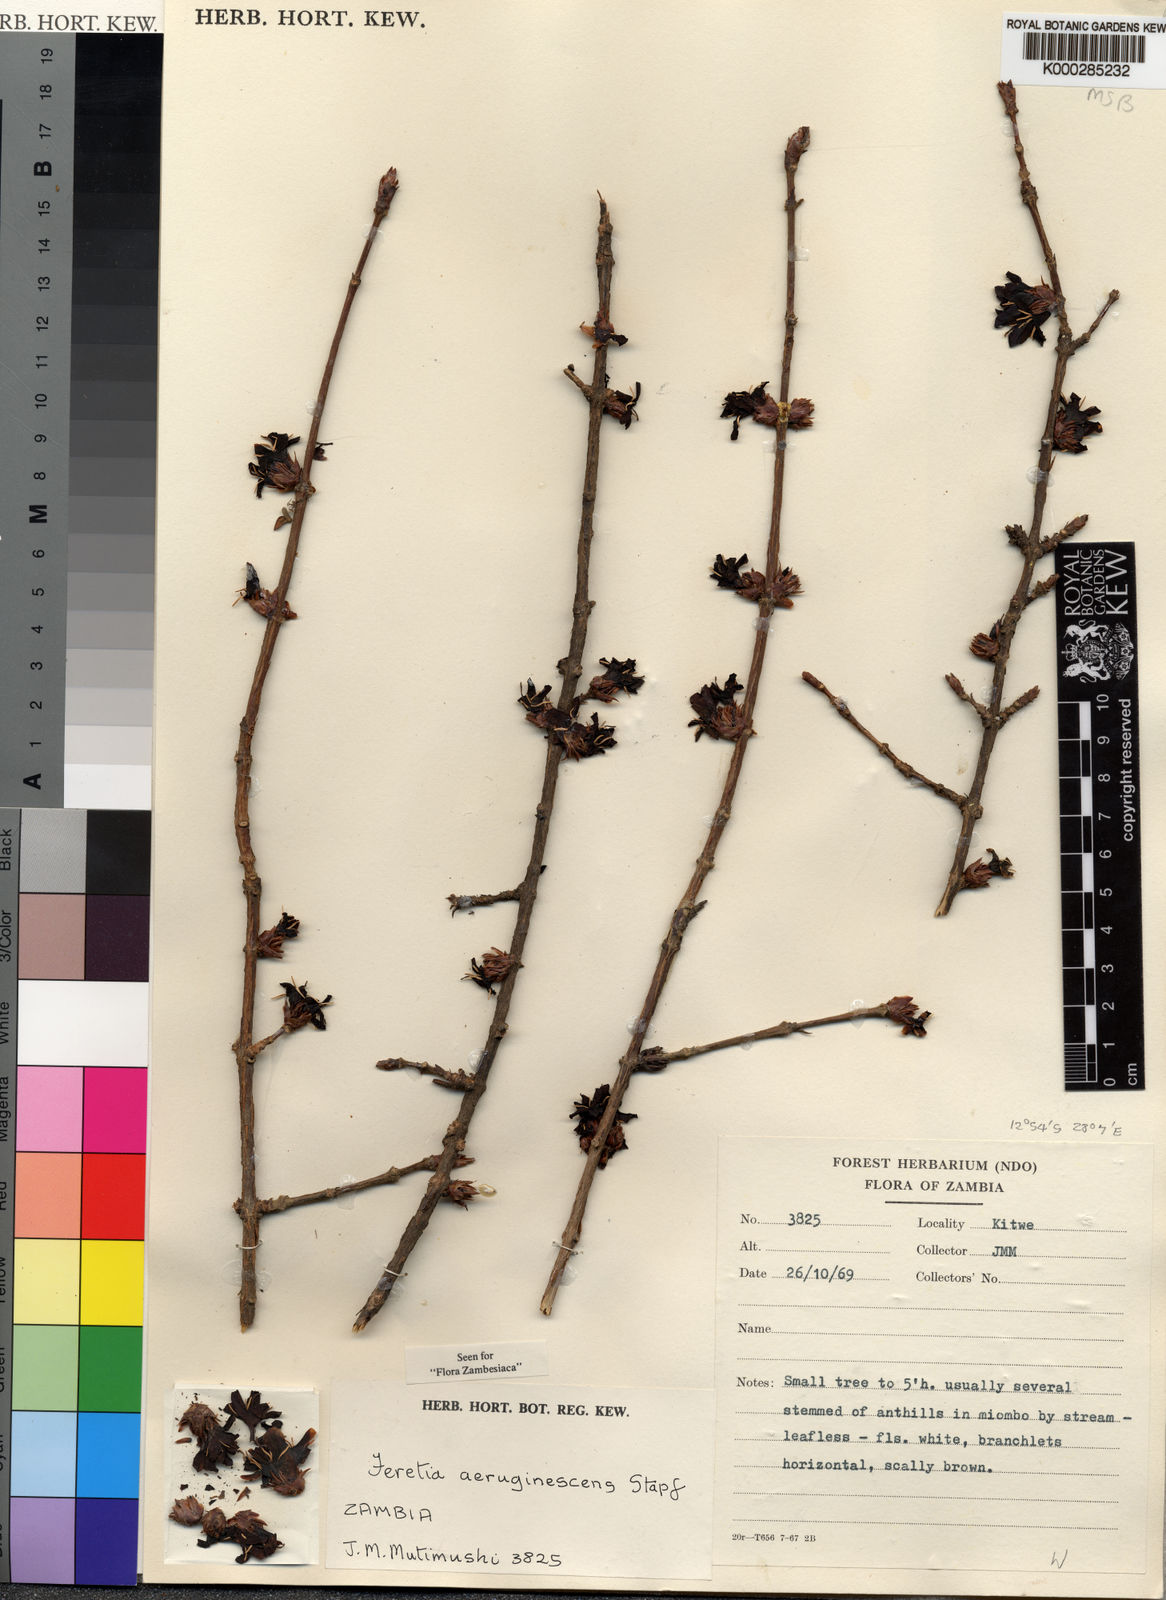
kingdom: Plantae
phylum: Tracheophyta
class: Magnoliopsida
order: Gentianales
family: Rubiaceae
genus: Feretia
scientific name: Feretia aeruginescens
